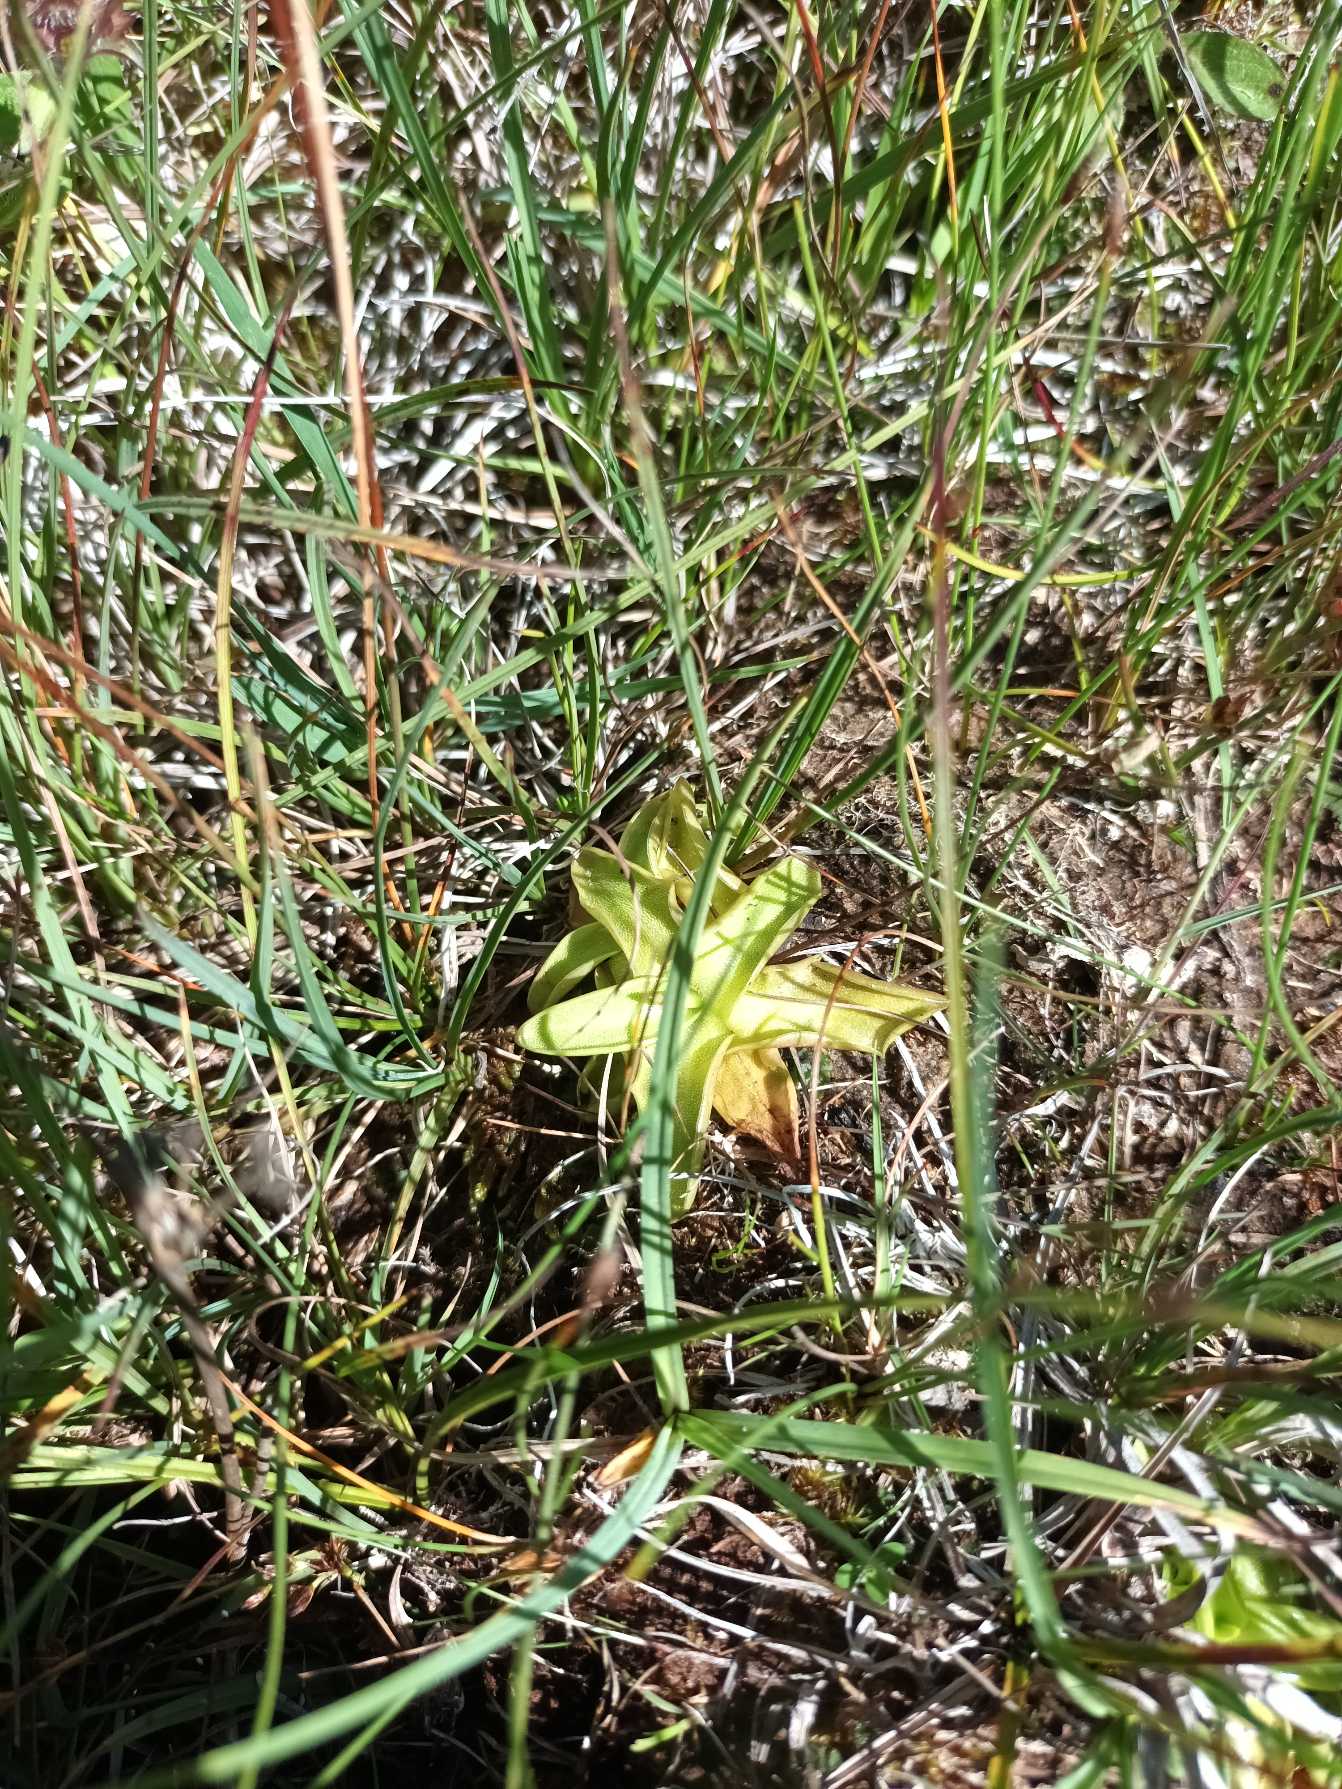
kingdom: Plantae
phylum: Tracheophyta
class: Magnoliopsida
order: Lamiales
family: Lentibulariaceae
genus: Pinguicula
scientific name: Pinguicula vulgaris
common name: Vibefedt
